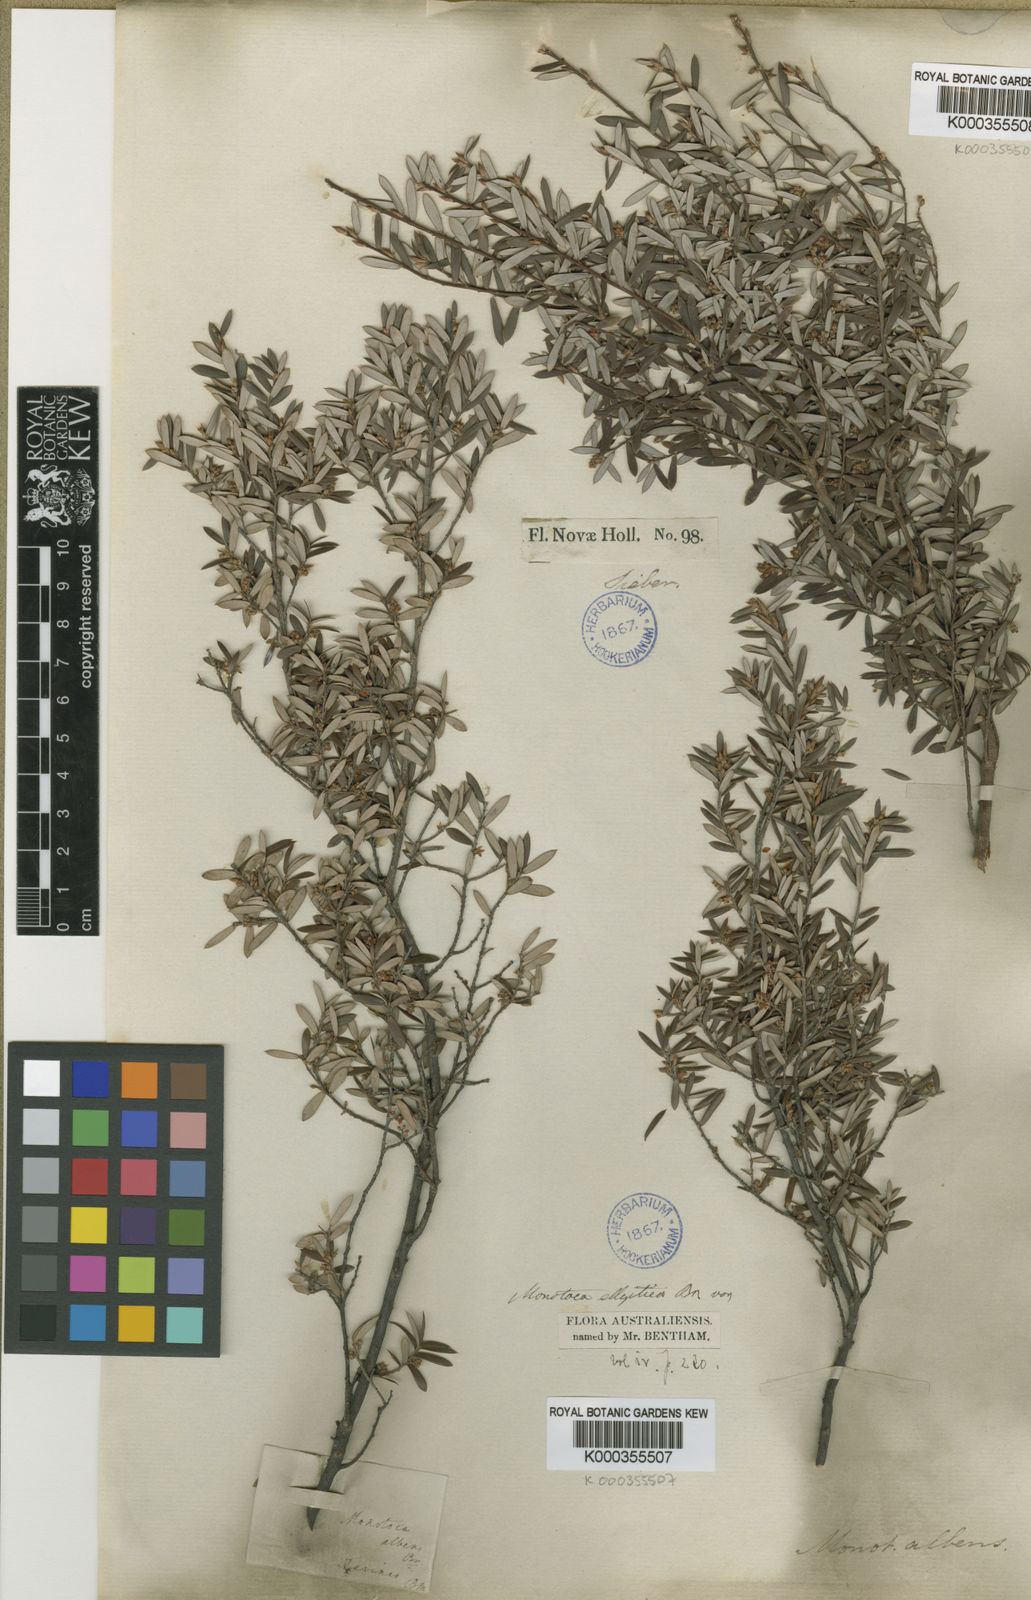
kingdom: Plantae
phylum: Tracheophyta
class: Magnoliopsida
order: Ericales
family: Ericaceae
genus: Monotoca
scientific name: Monotoca elliptica
